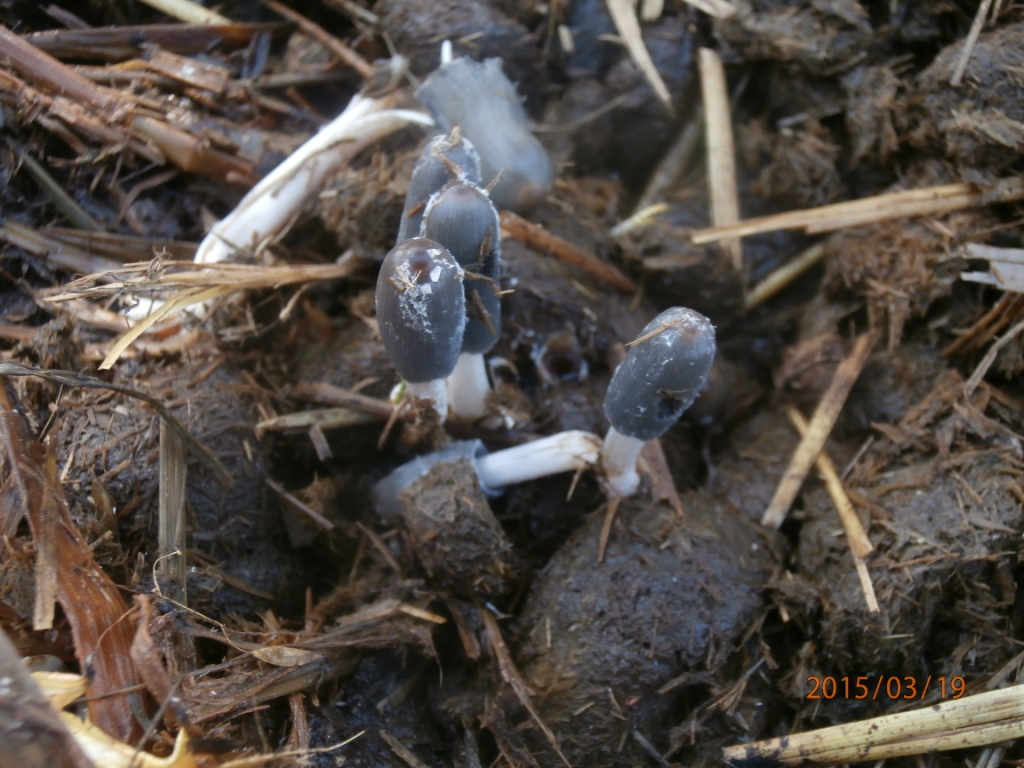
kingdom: Fungi
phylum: Basidiomycota
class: Agaricomycetes
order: Agaricales
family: Psathyrellaceae
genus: Coprinopsis
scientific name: Coprinopsis macrocephala
